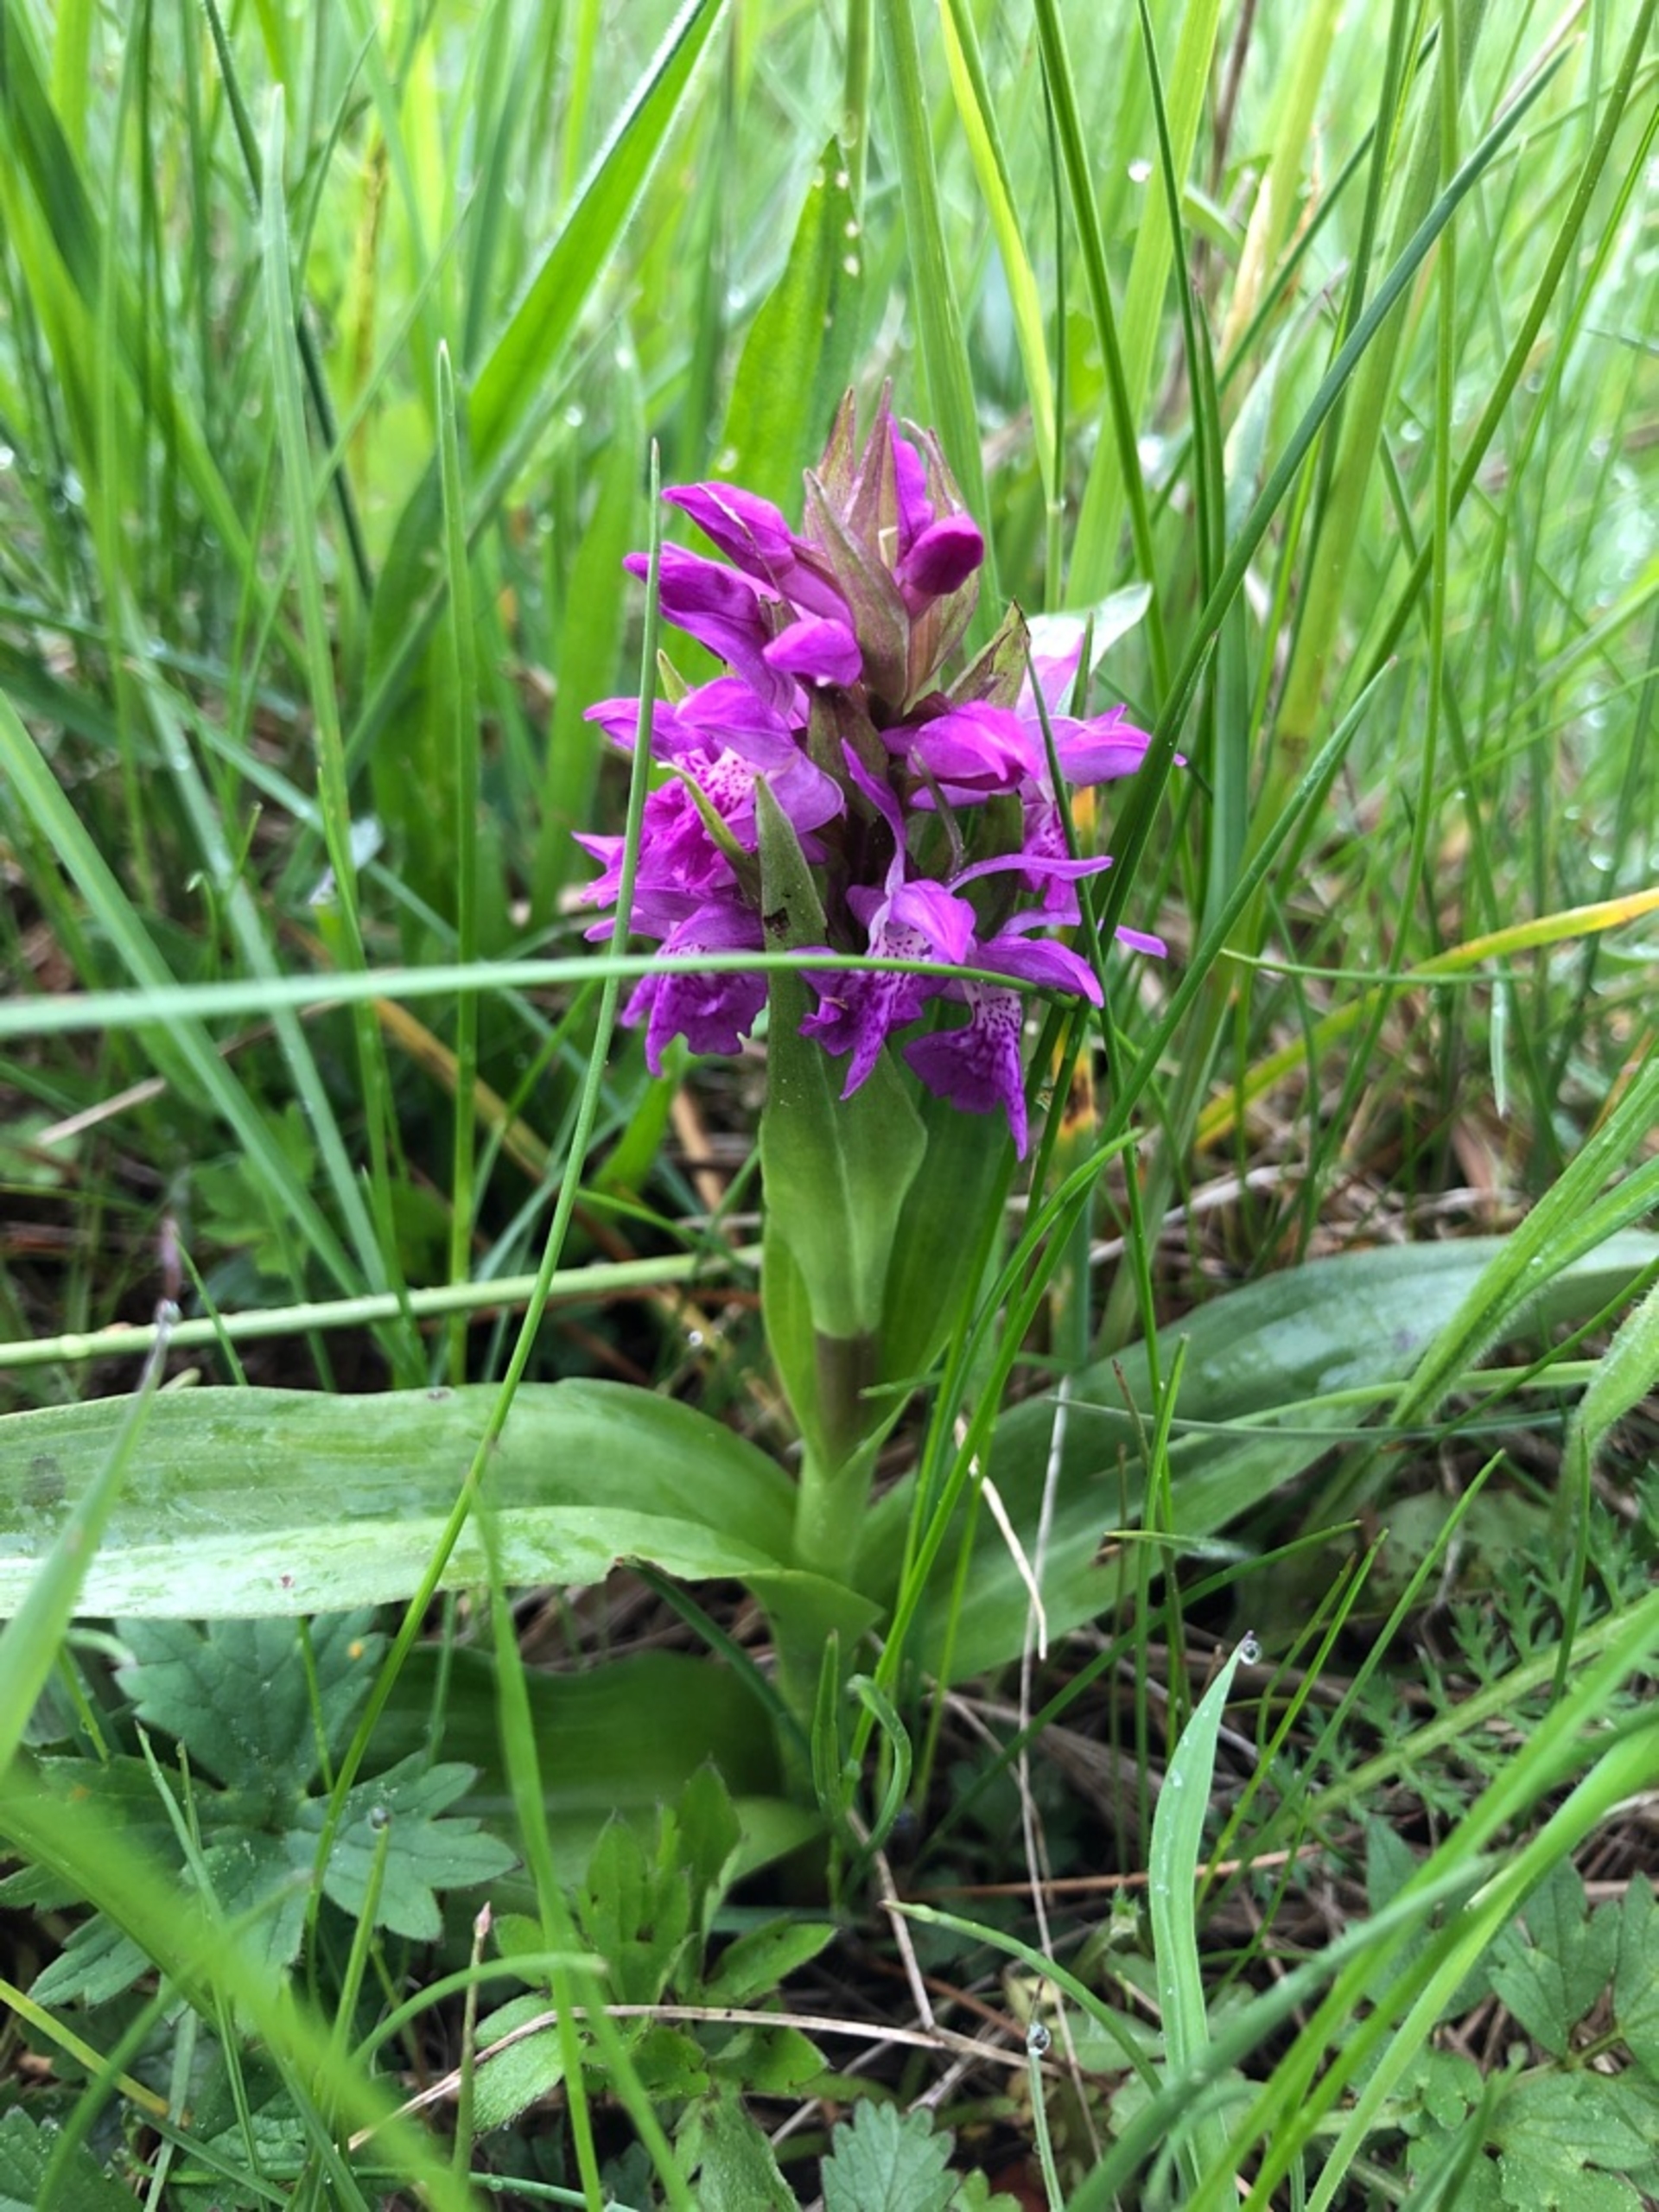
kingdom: Plantae
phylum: Tracheophyta
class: Liliopsida
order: Asparagales
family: Orchidaceae
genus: Dactylorhiza
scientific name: Dactylorhiza majalis
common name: Maj-gøgeurt
